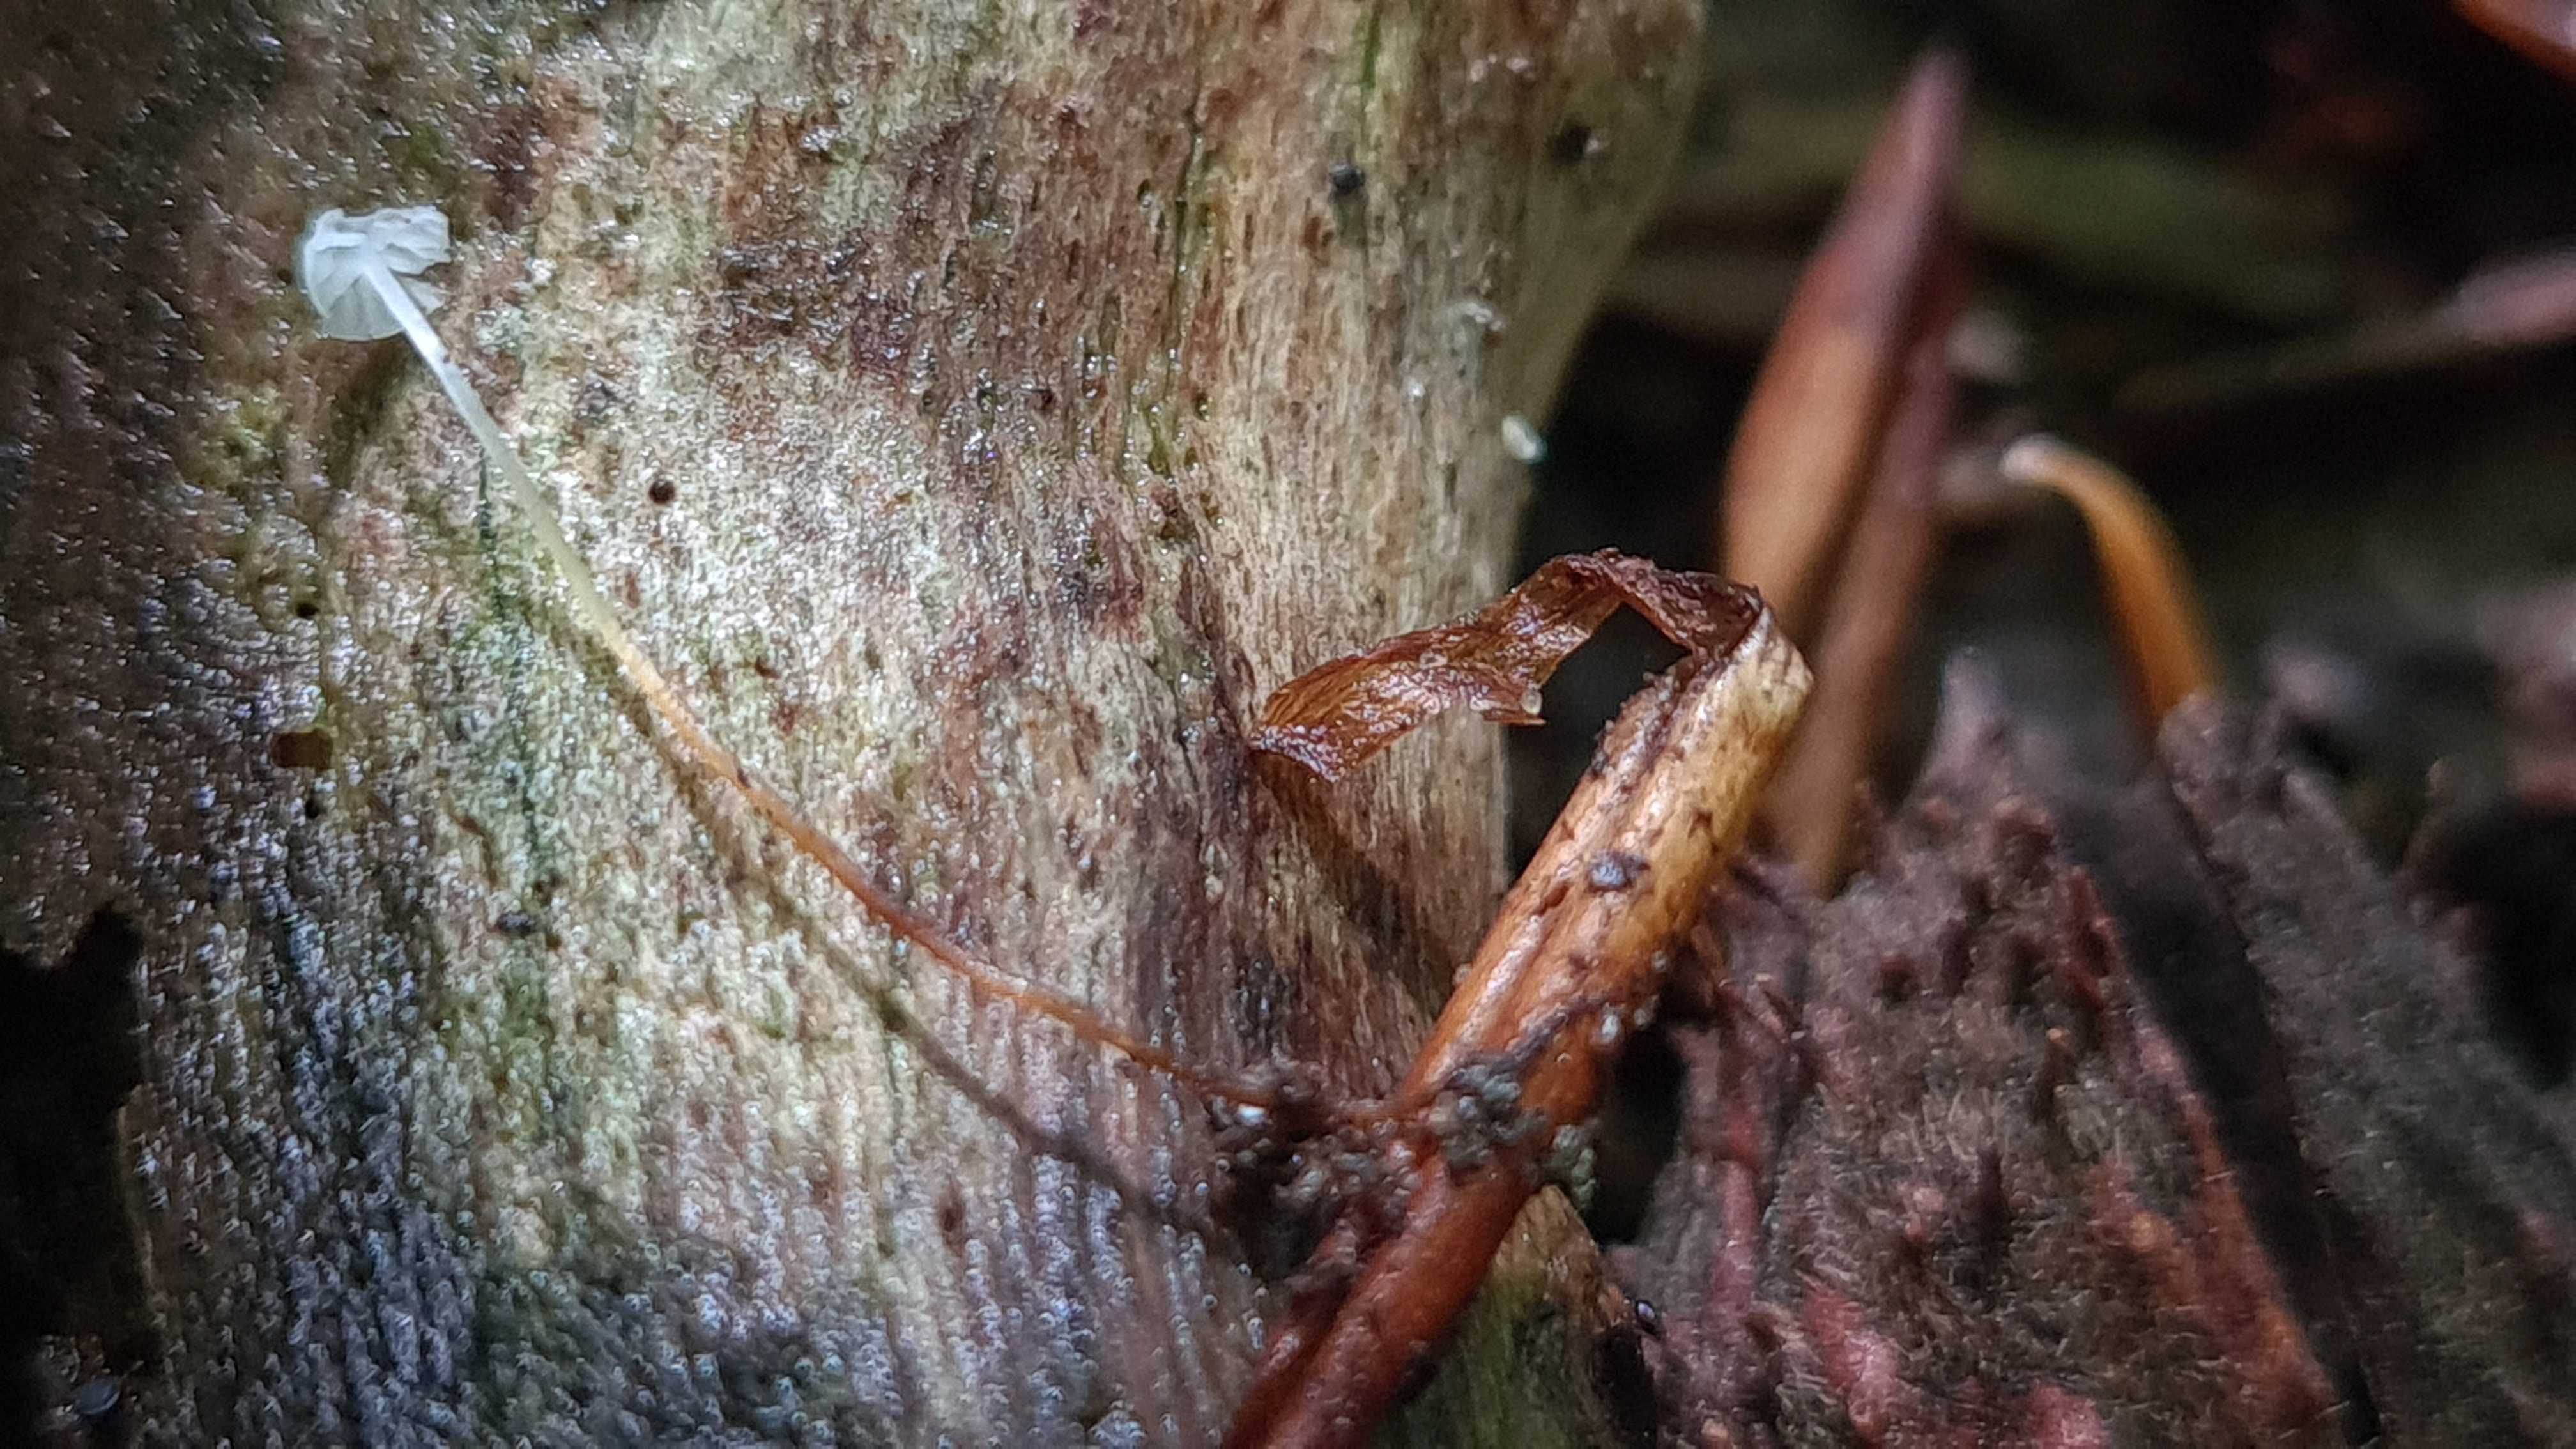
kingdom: Fungi
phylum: Basidiomycota
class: Agaricomycetes
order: Agaricales
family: Physalacriaceae
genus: Rhizomarasmius
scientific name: Rhizomarasmius setosus
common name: bøgeblads-bruskhat
